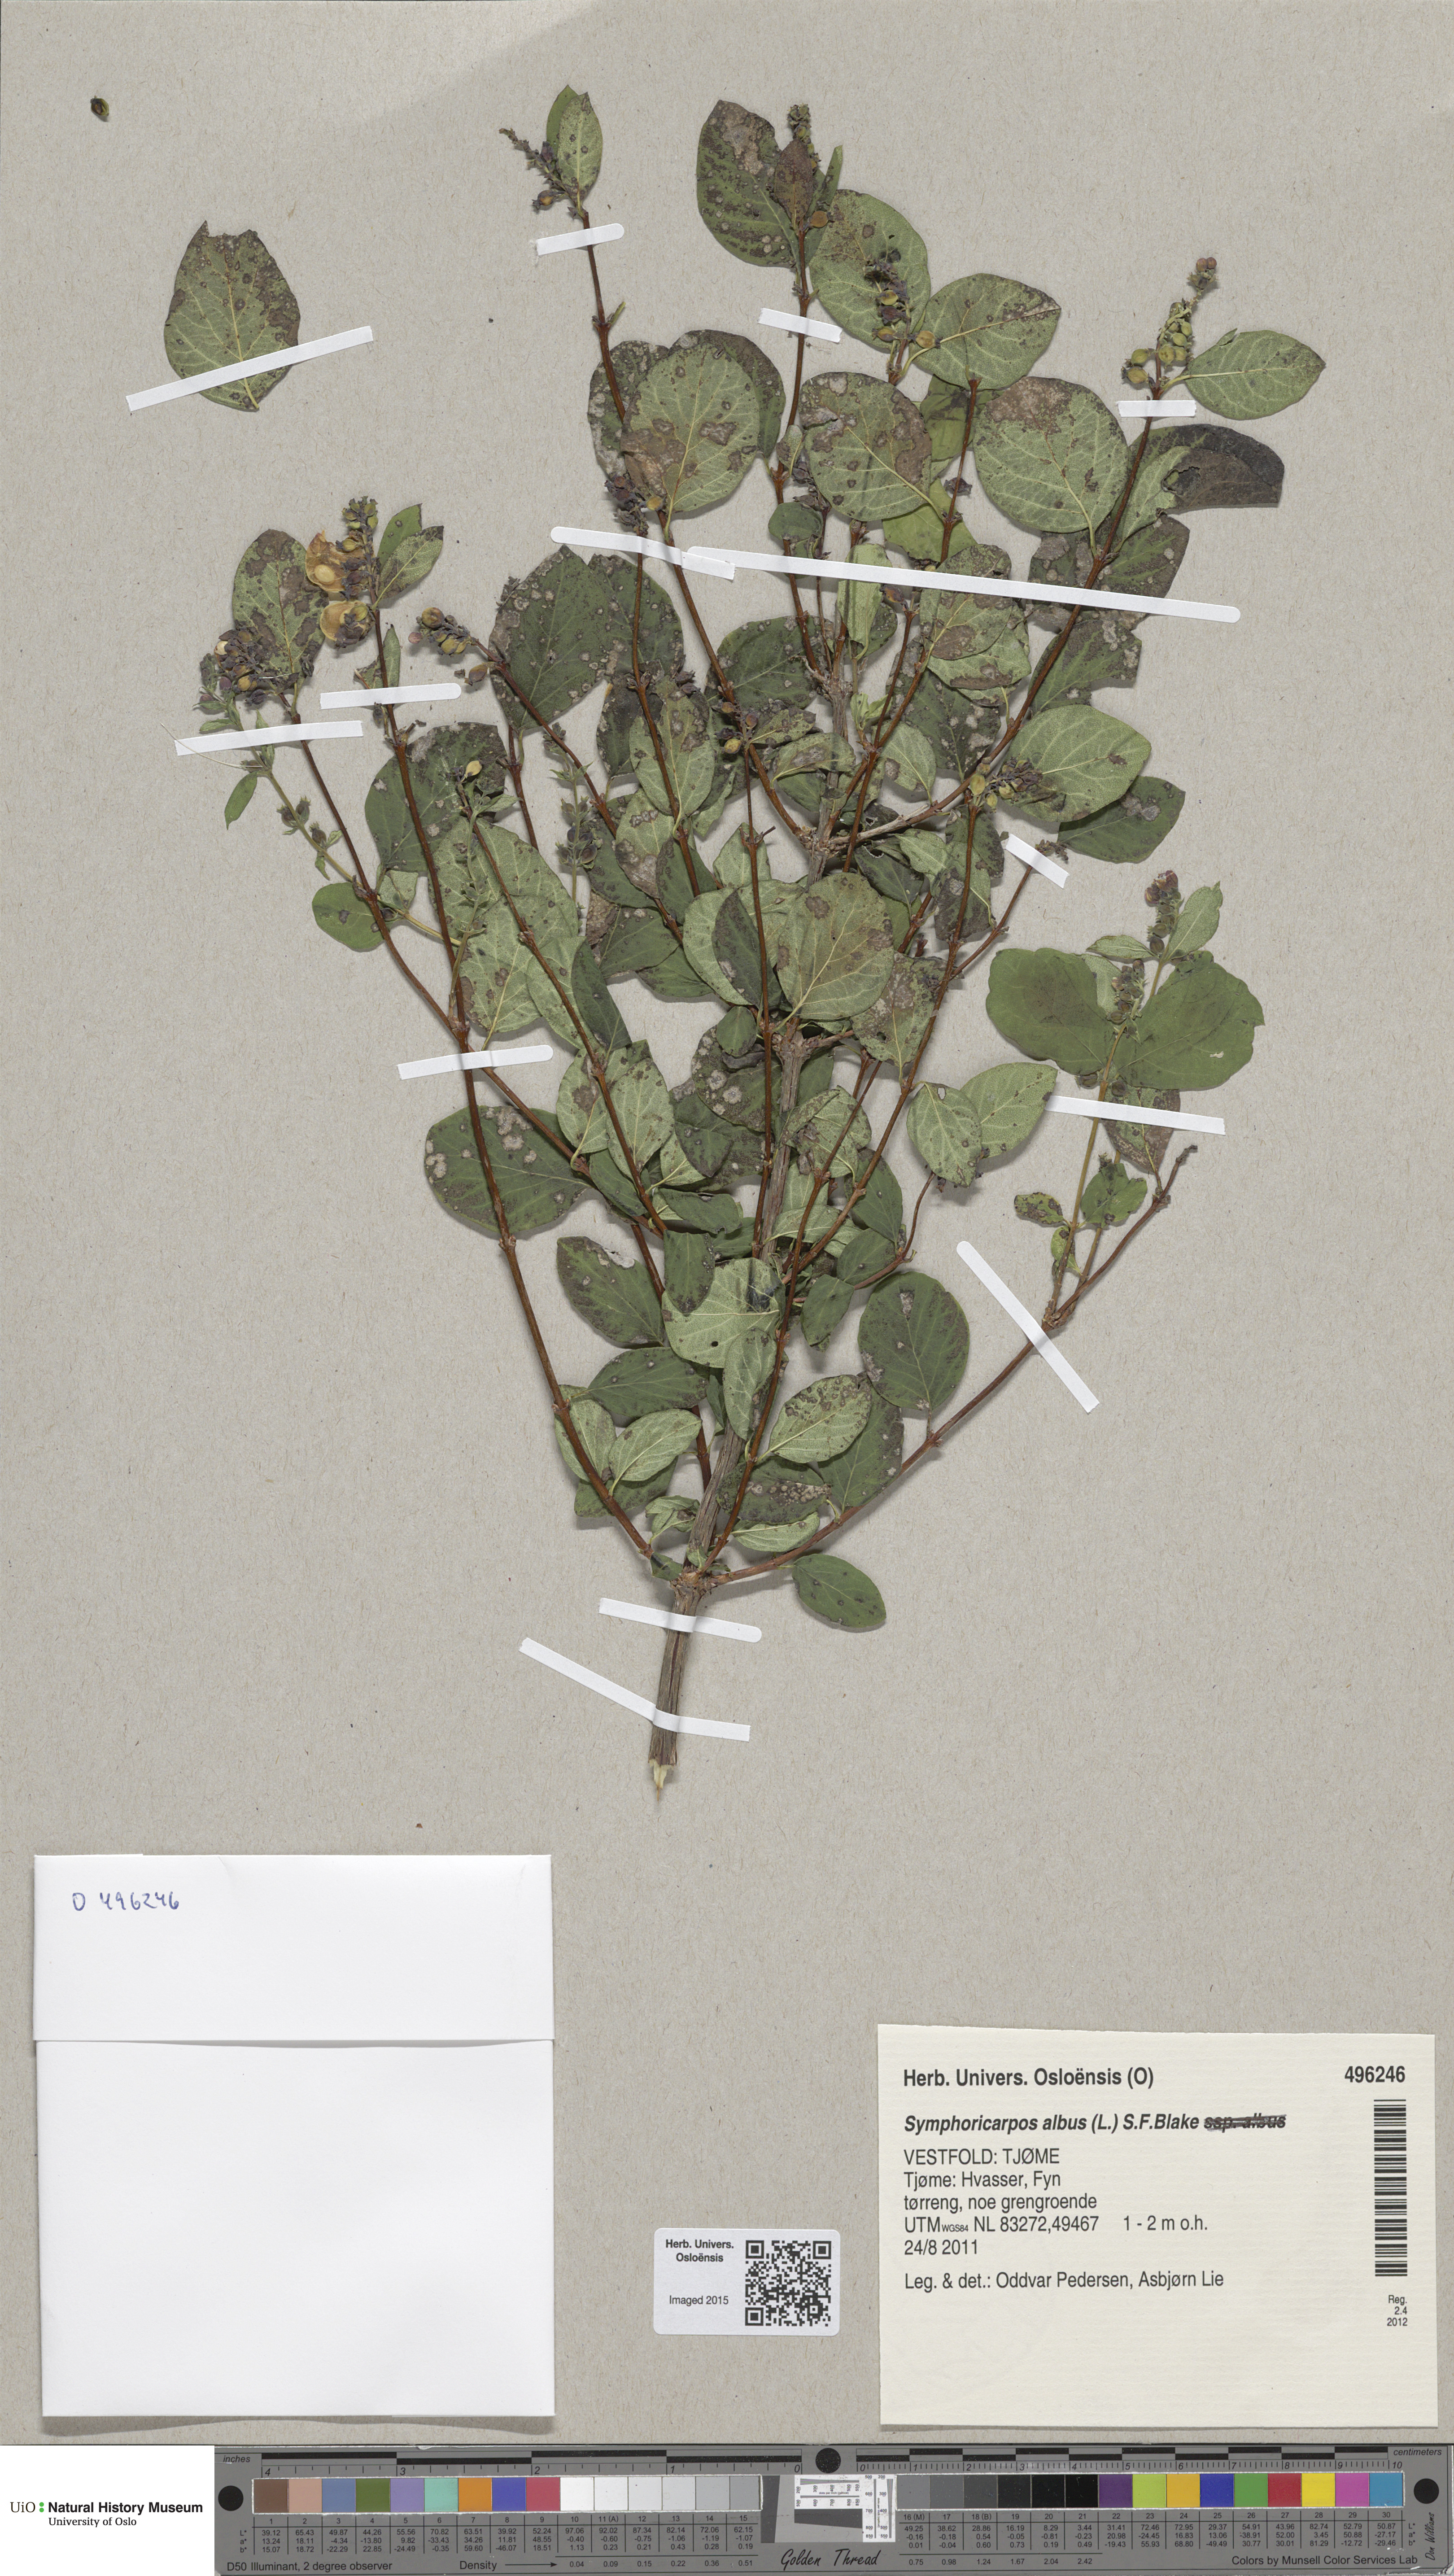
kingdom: Plantae
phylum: Tracheophyta
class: Magnoliopsida
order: Dipsacales
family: Caprifoliaceae
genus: Symphoricarpos
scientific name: Symphoricarpos albus
